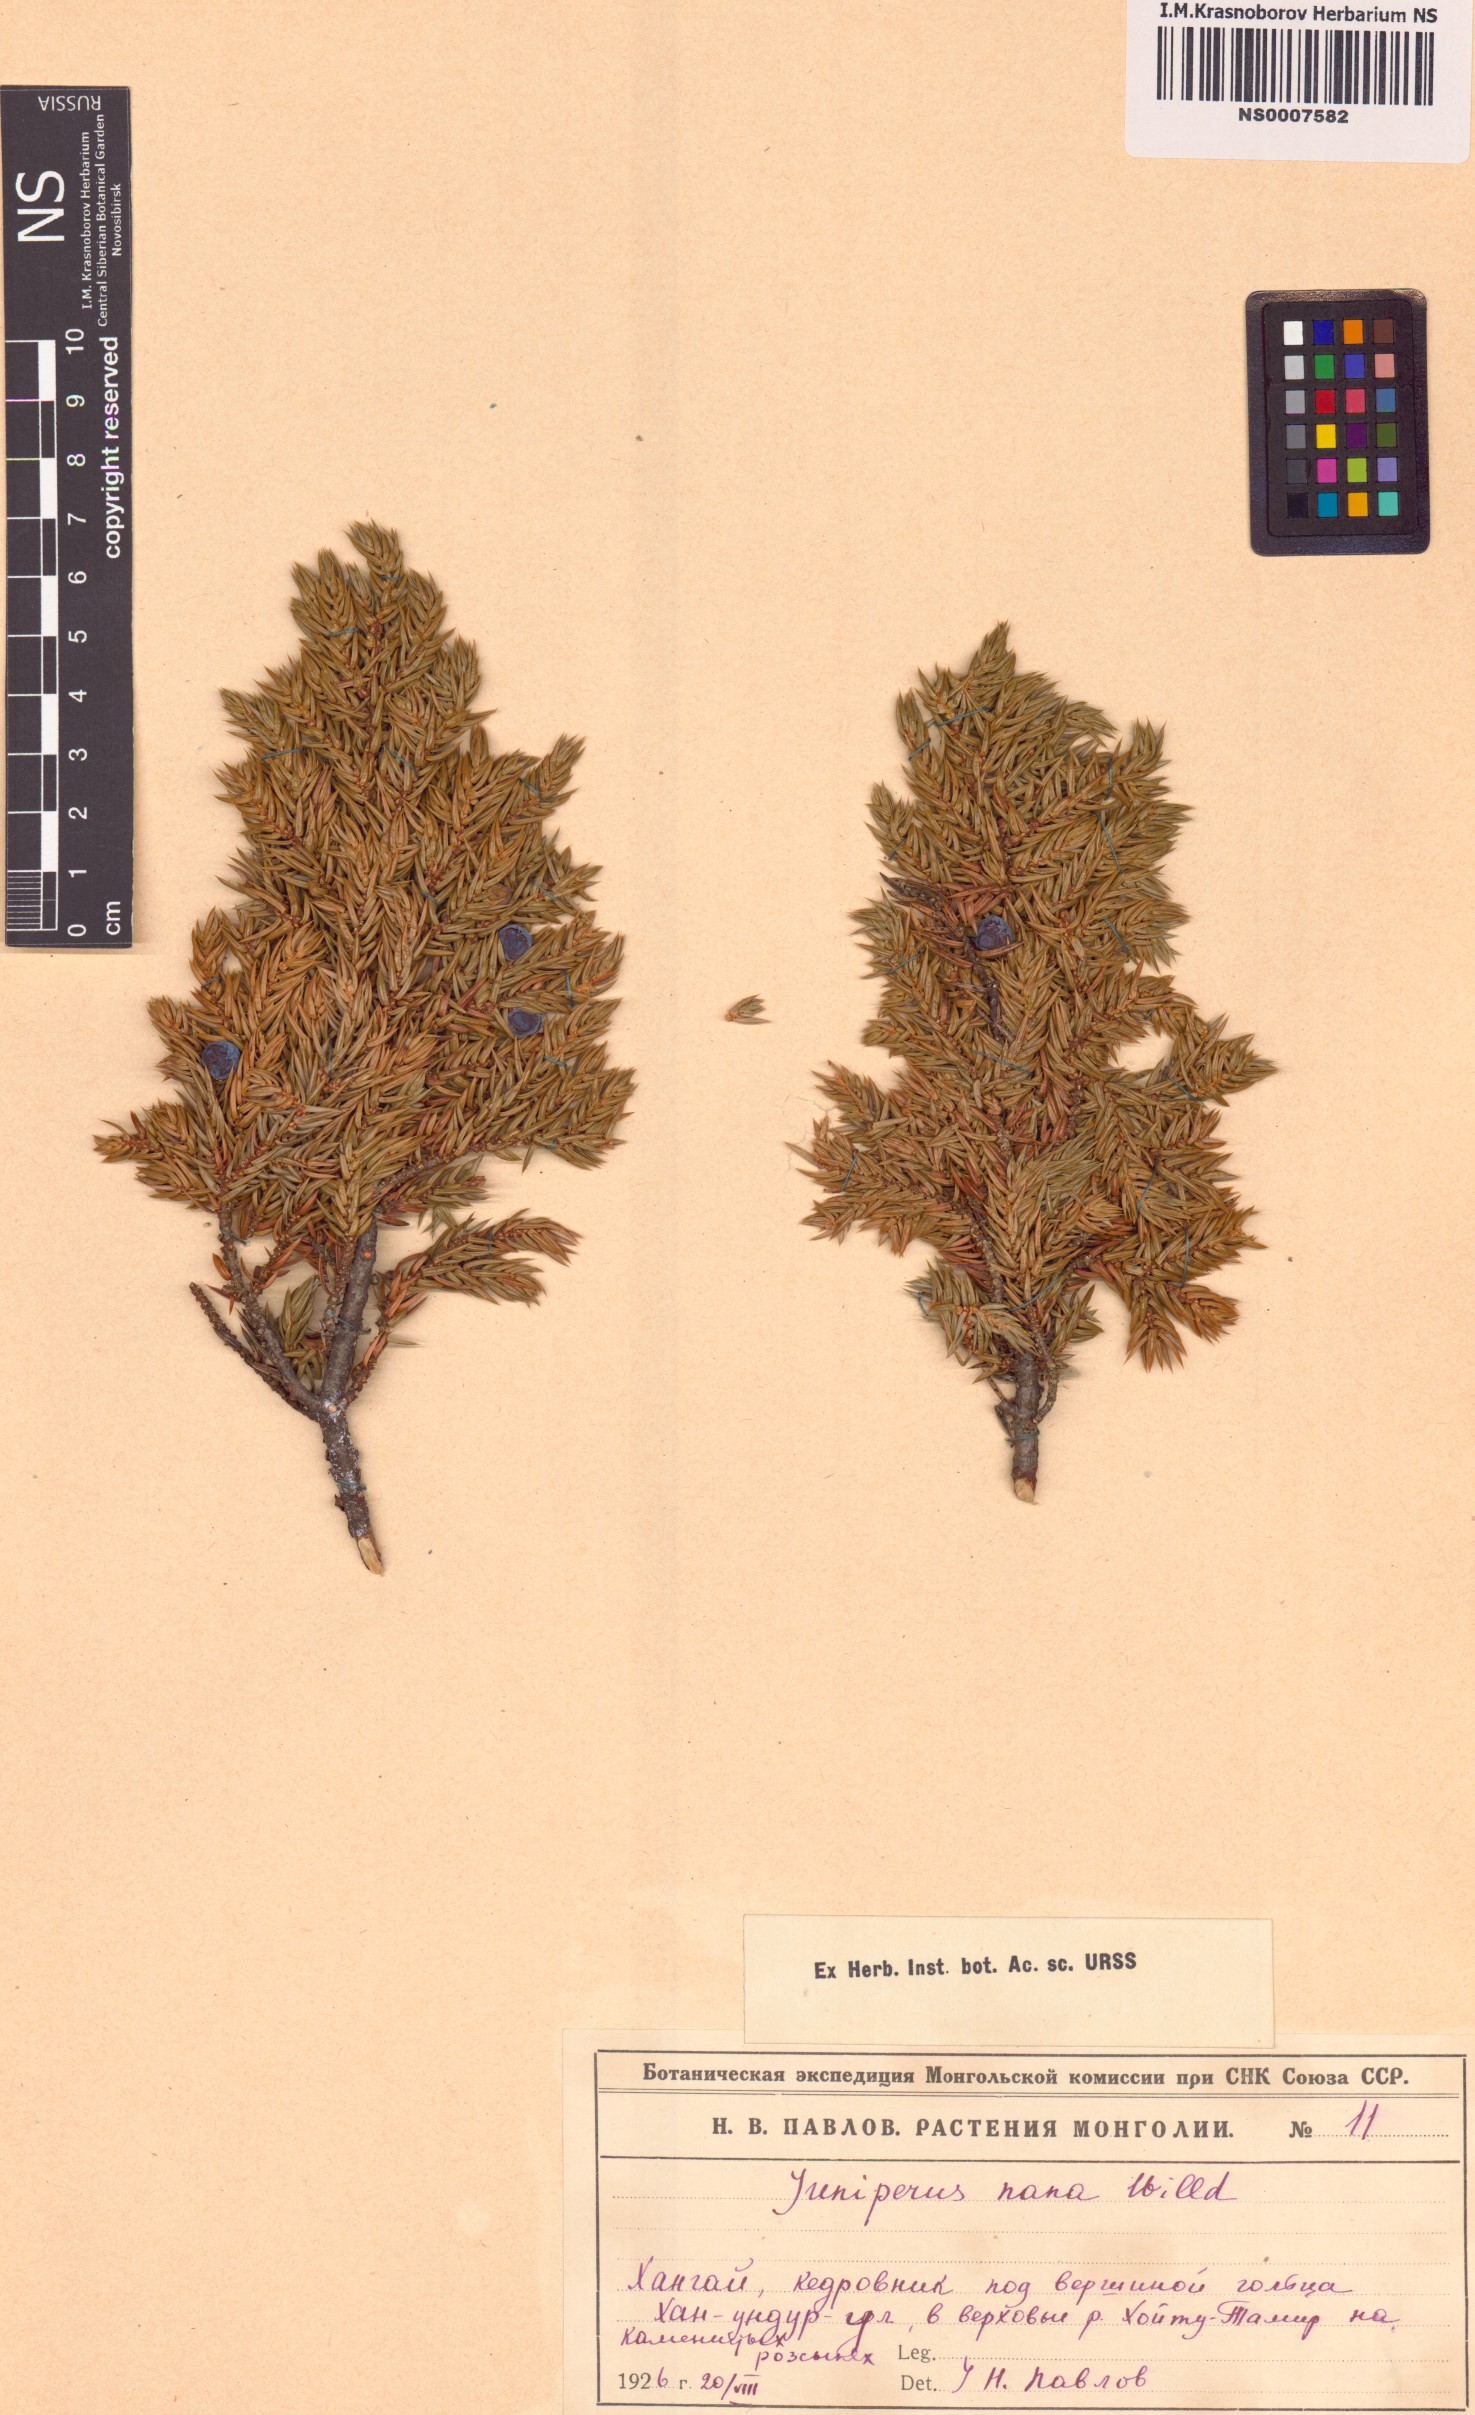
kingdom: Plantae
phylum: Tracheophyta
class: Pinopsida
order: Pinales
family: Cupressaceae
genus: Juniperus
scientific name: Juniperus communis
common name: Common juniper
